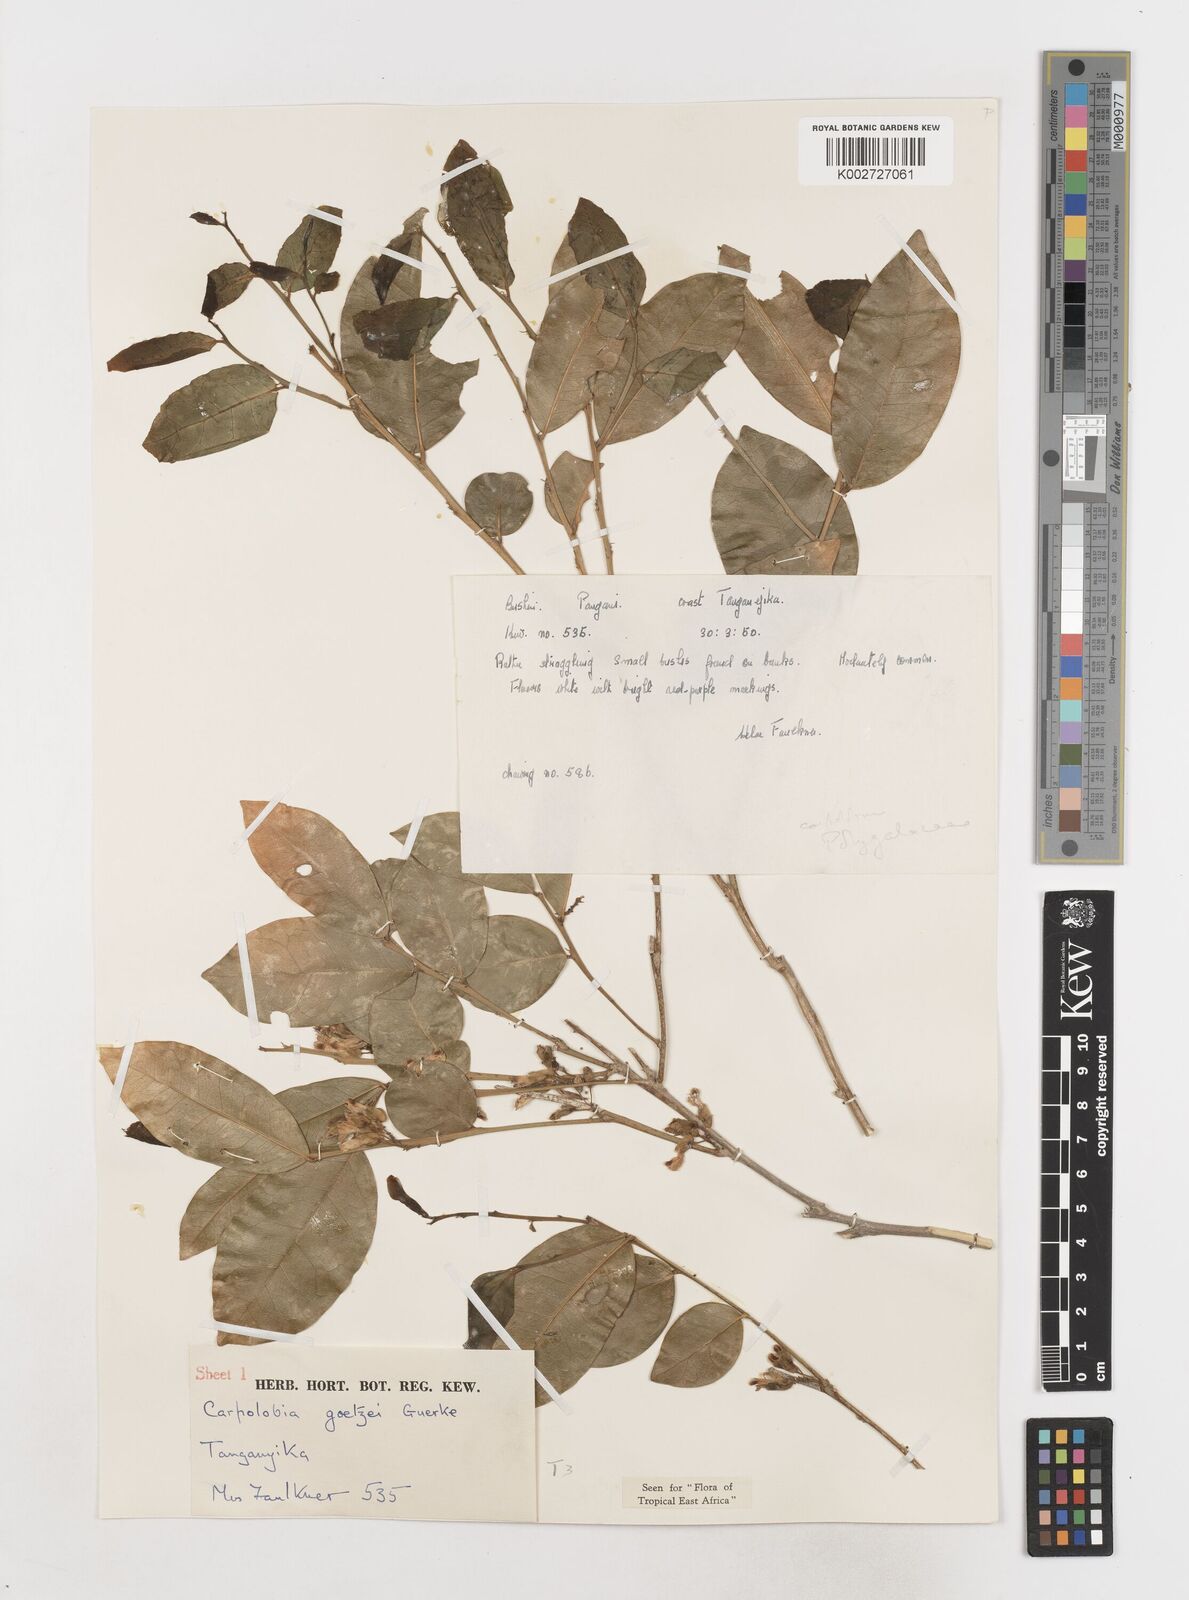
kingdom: Plantae
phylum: Tracheophyta
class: Magnoliopsida
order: Fabales
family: Polygalaceae
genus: Carpolobia
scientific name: Carpolobia goetzei
